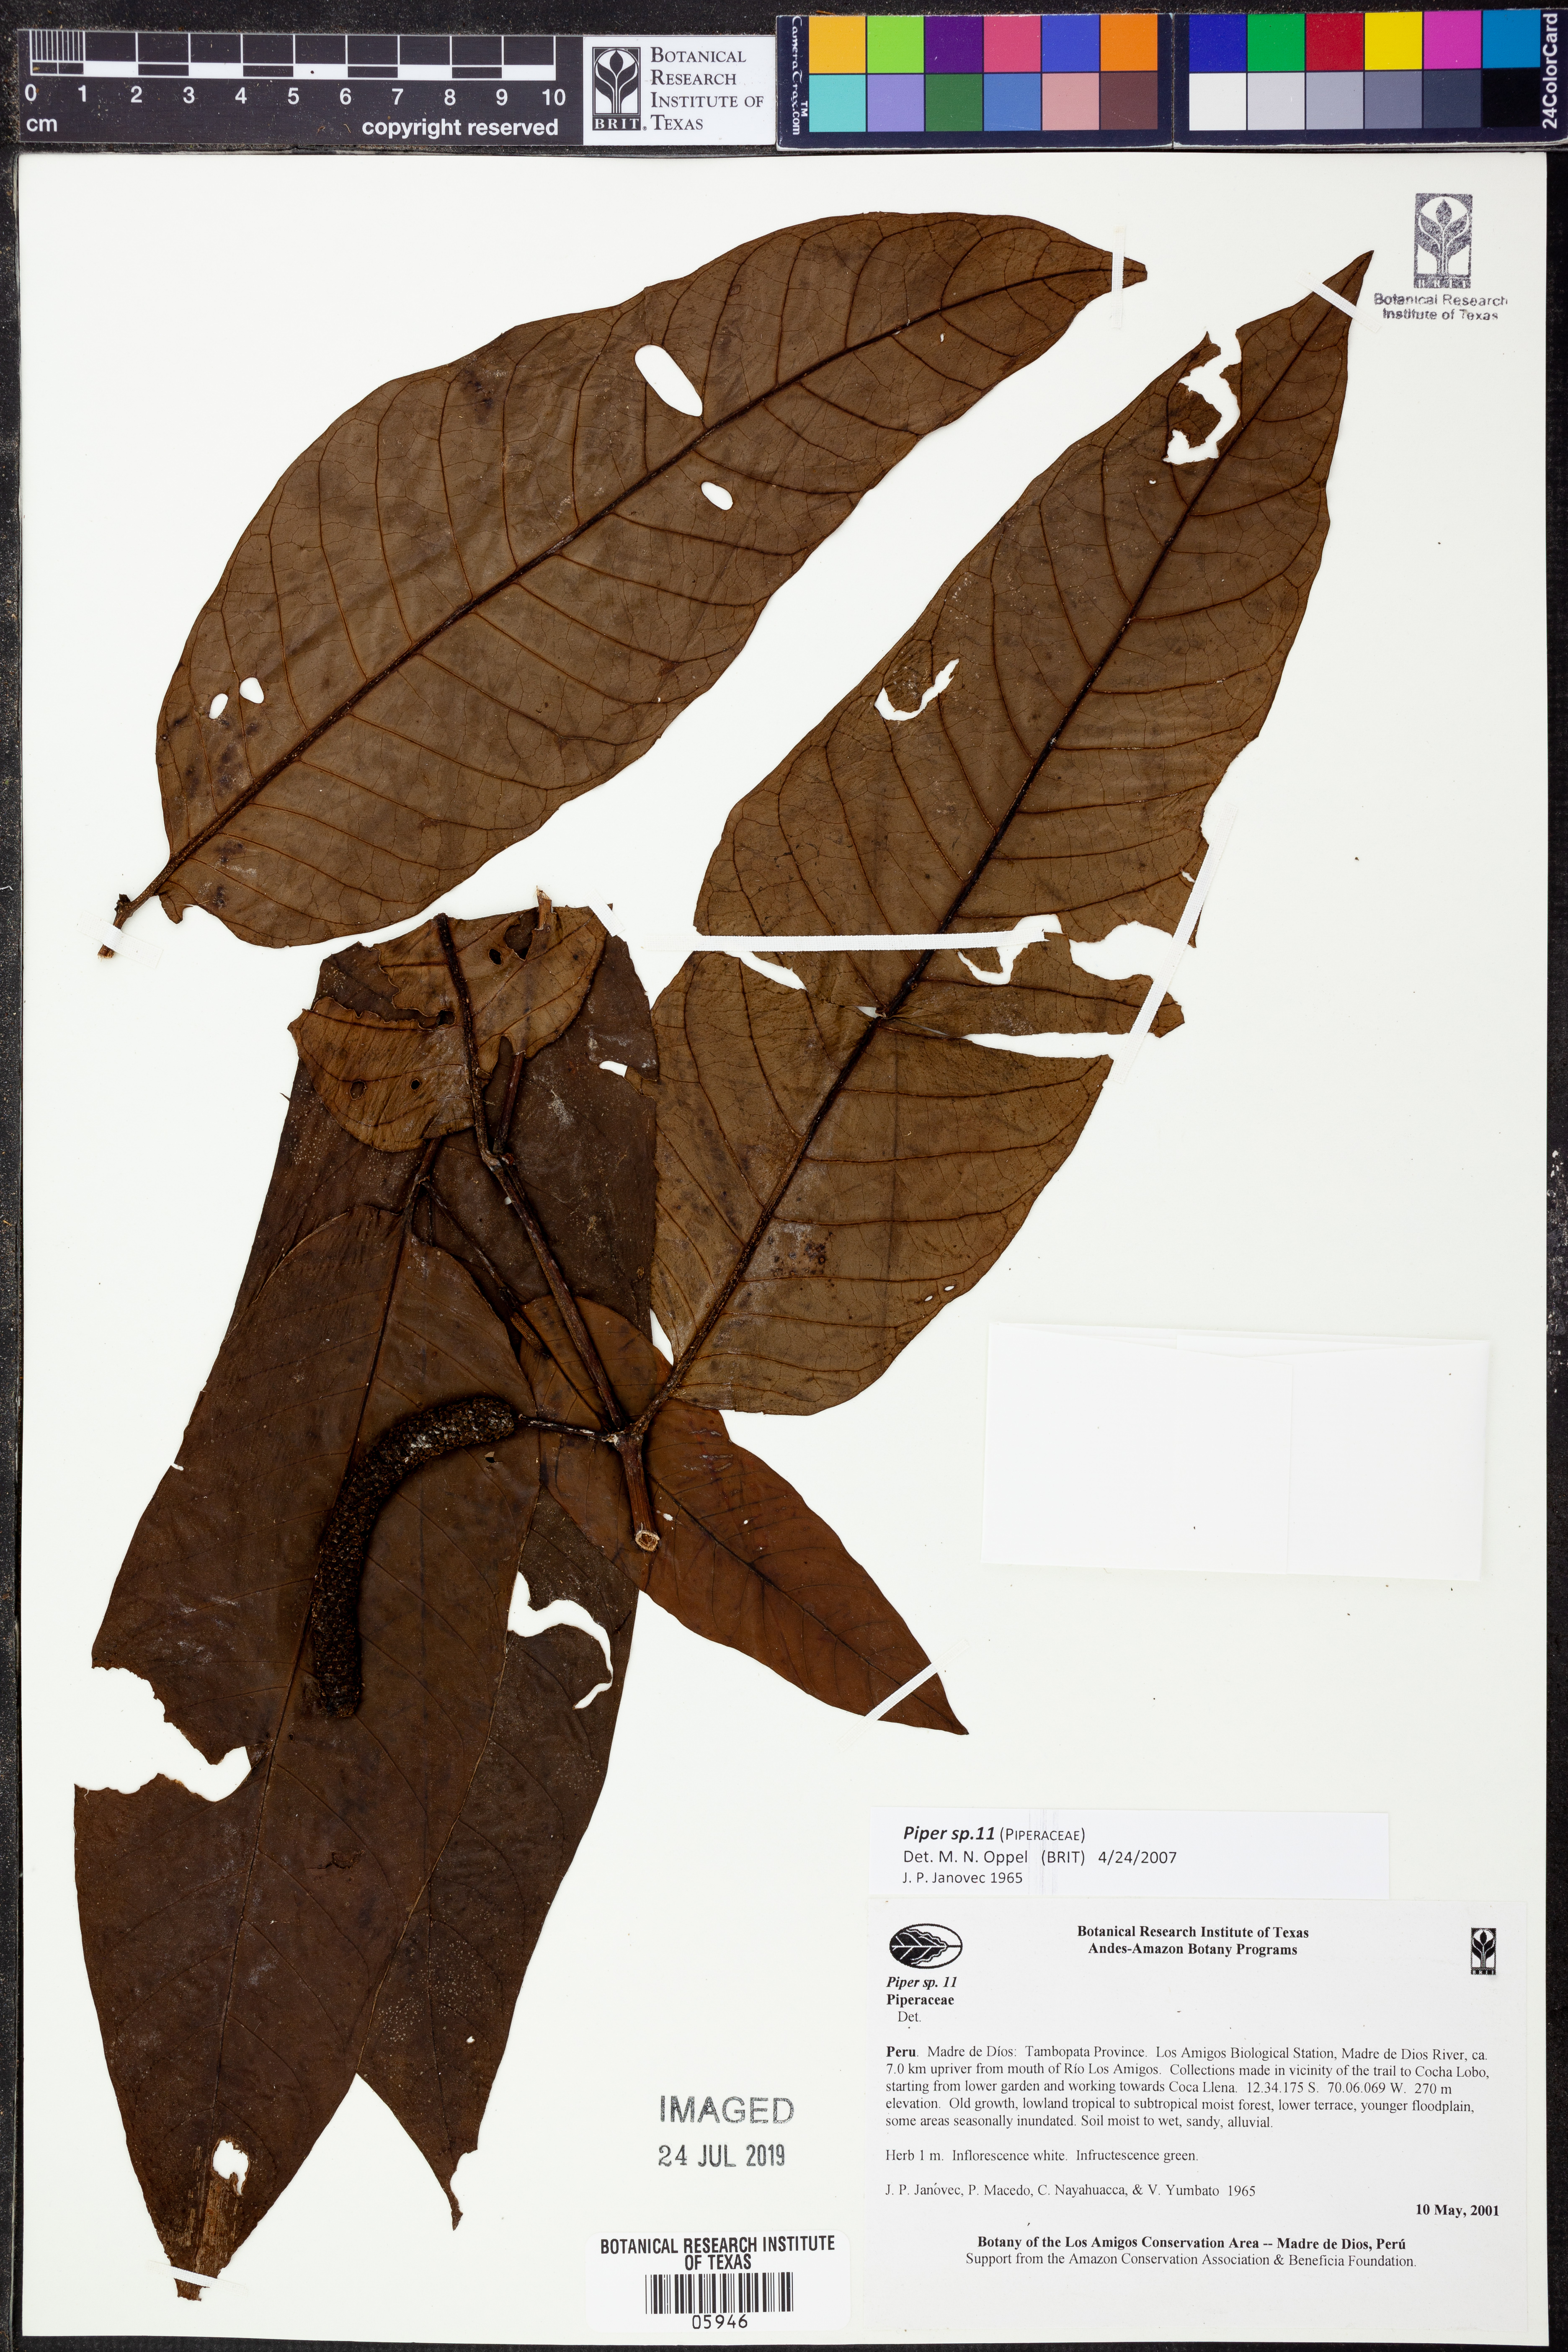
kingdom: Plantae
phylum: Tracheophyta
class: Magnoliopsida
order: Piperales
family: Piperaceae
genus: Piper
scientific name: Piper
